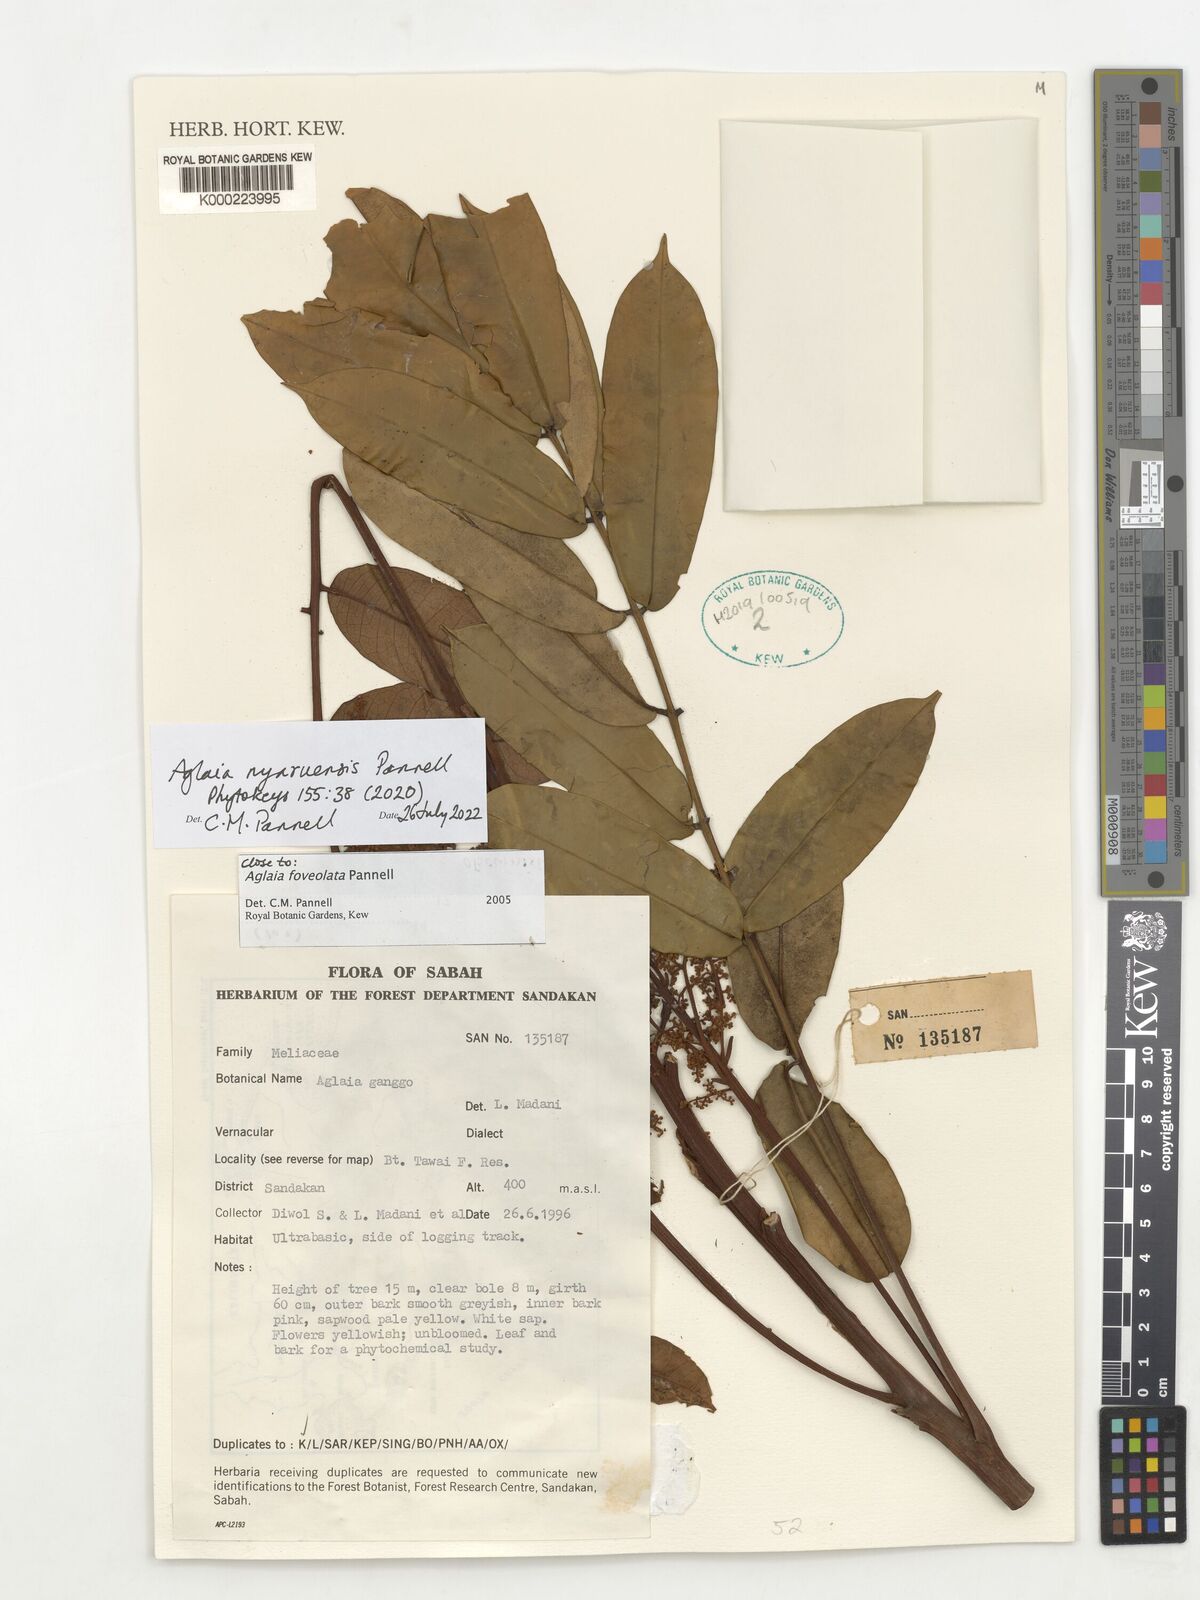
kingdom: Plantae
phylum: Tracheophyta
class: Magnoliopsida
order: Sapindales
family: Meliaceae
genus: Aglaia
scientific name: Aglaia
